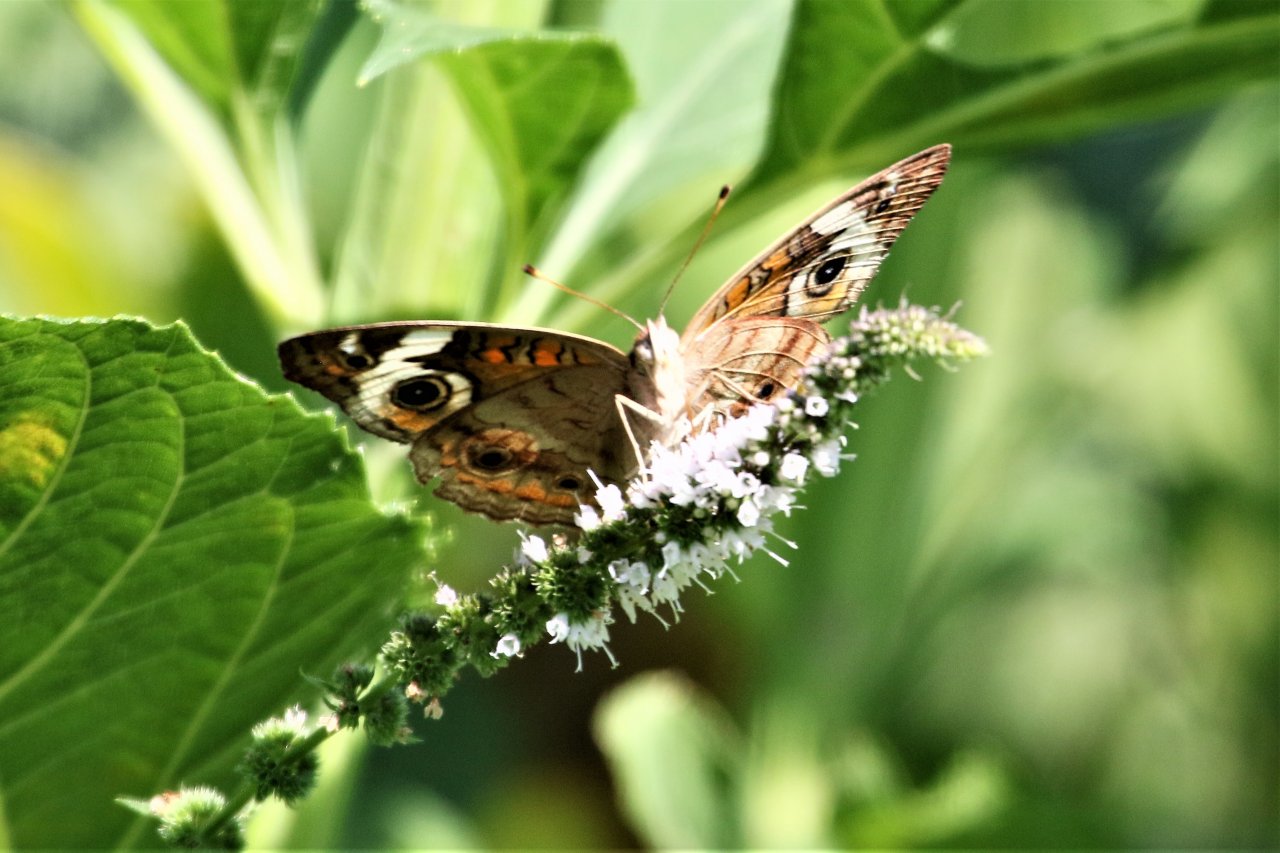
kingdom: Animalia
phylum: Arthropoda
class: Insecta
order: Lepidoptera
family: Nymphalidae
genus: Junonia
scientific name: Junonia coenia
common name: Common Buckeye
